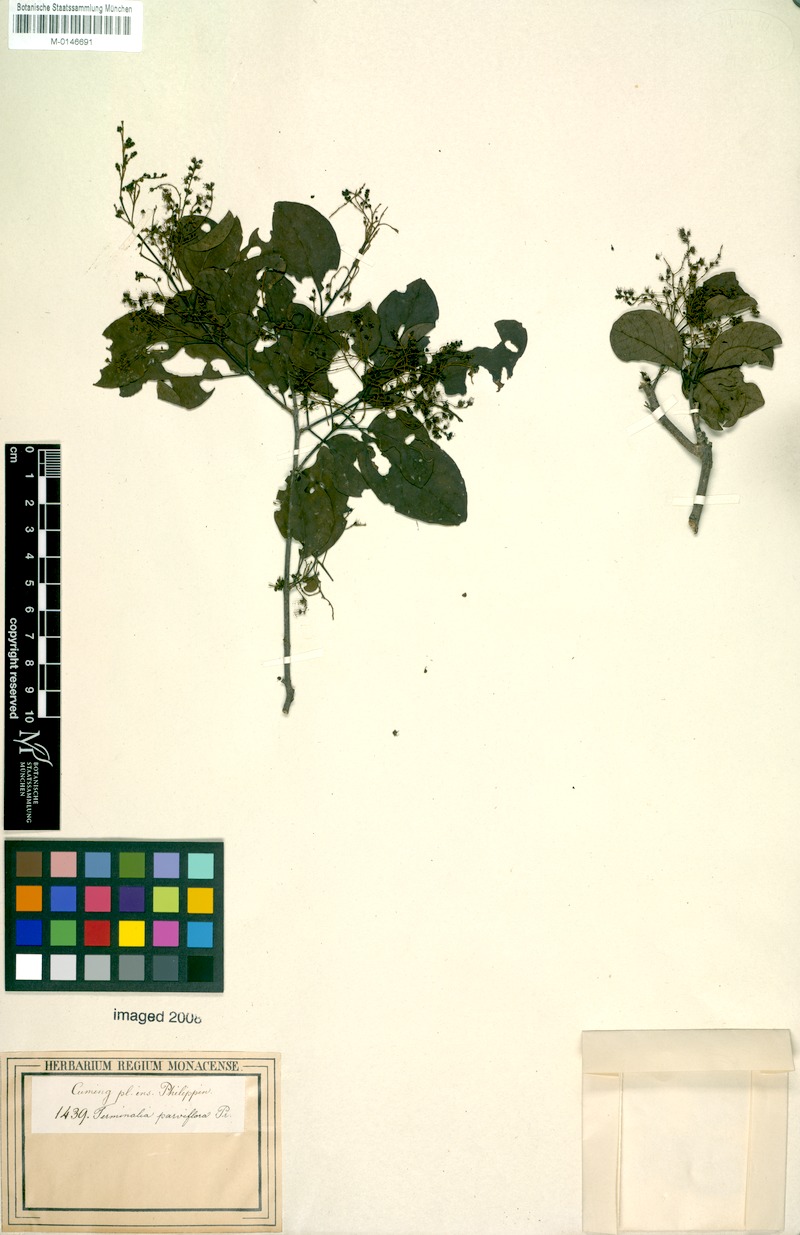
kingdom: Plantae
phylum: Tracheophyta
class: Magnoliopsida
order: Myrtales
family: Combretaceae
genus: Terminalia
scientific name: Terminalia polyantha
